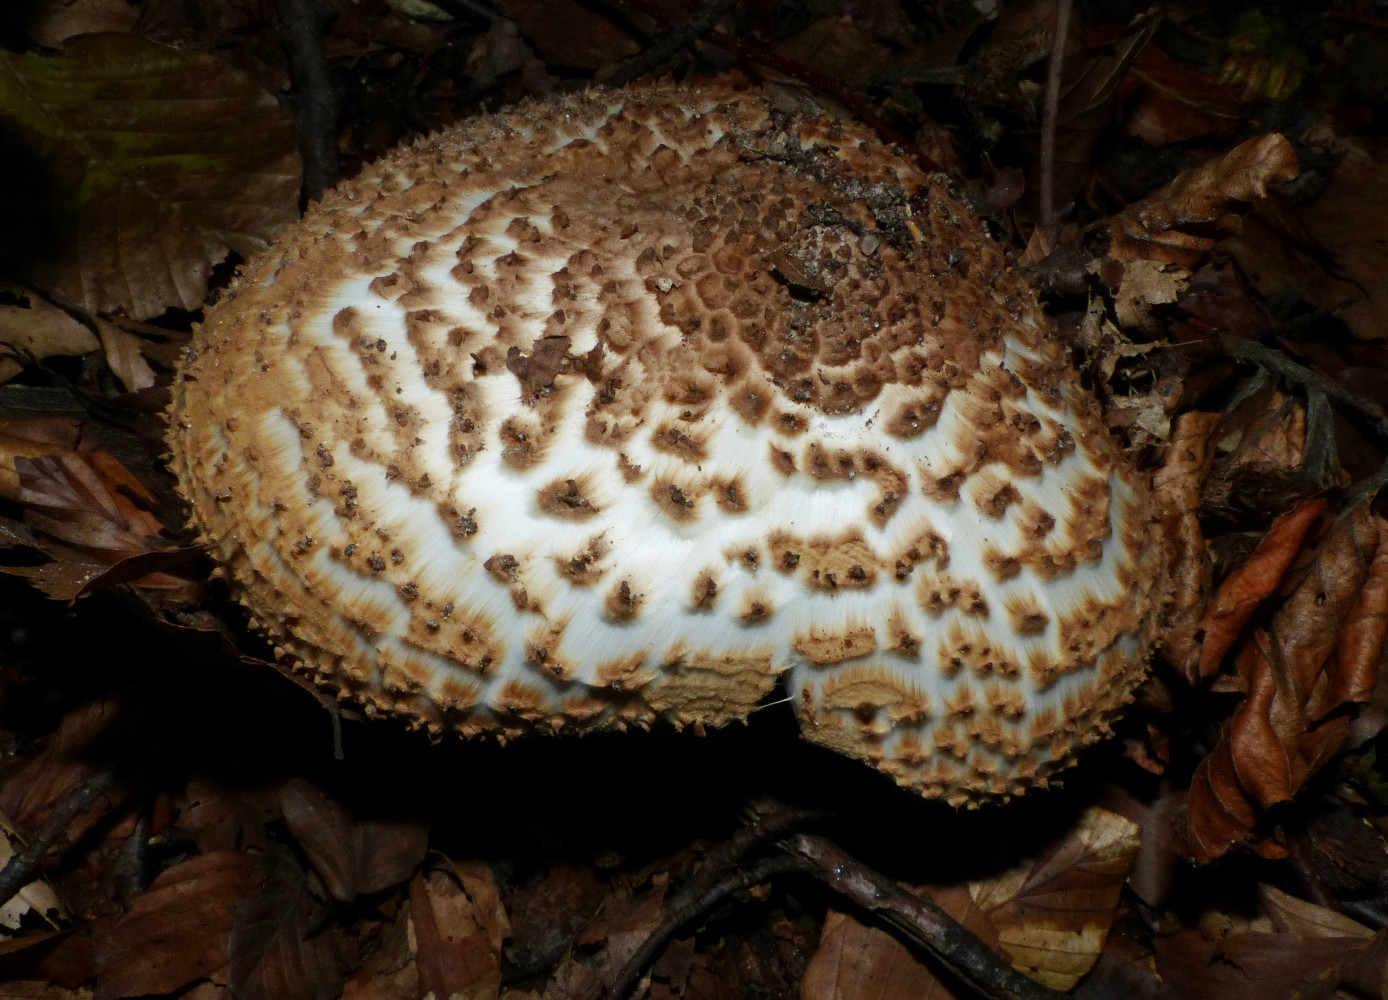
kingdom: Fungi
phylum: Basidiomycota
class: Agaricomycetes
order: Agaricales
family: Agaricaceae
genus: Echinoderma
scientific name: Echinoderma asperum
